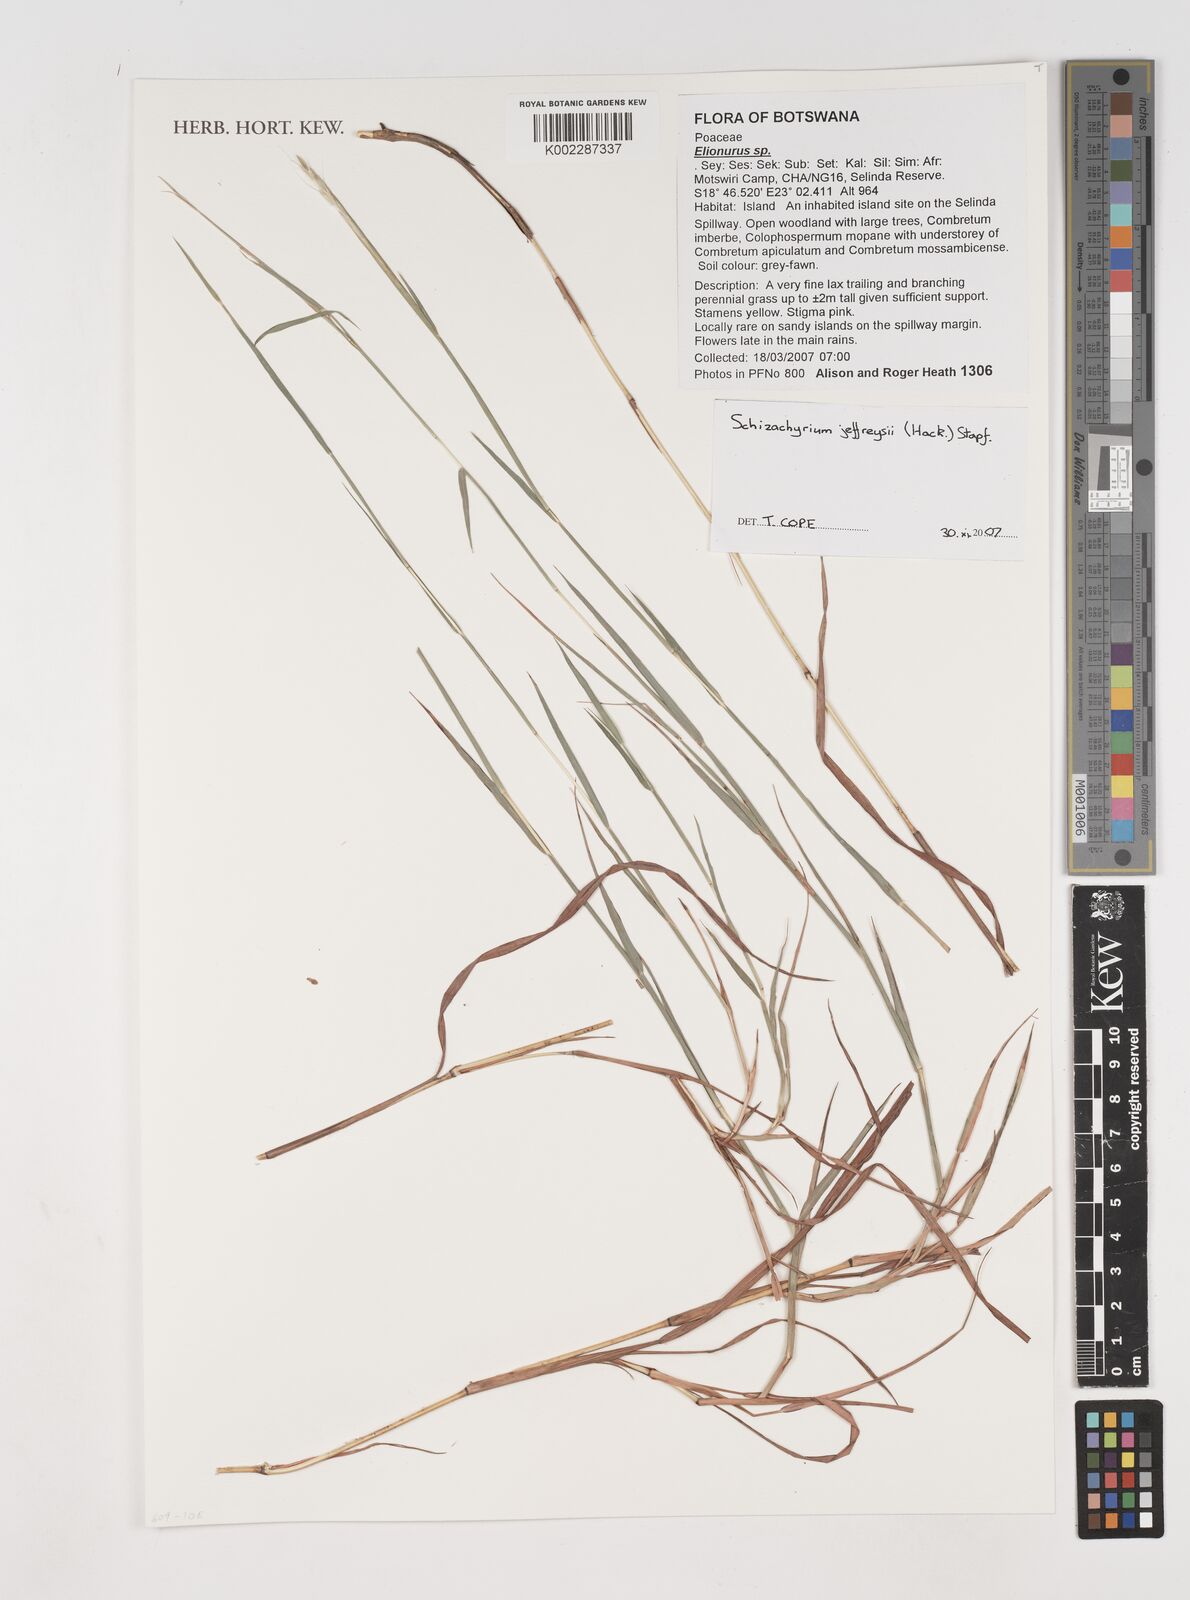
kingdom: Plantae
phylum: Tracheophyta
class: Liliopsida
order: Poales
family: Poaceae
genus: Schizachyrium
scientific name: Schizachyrium jeffreysii
